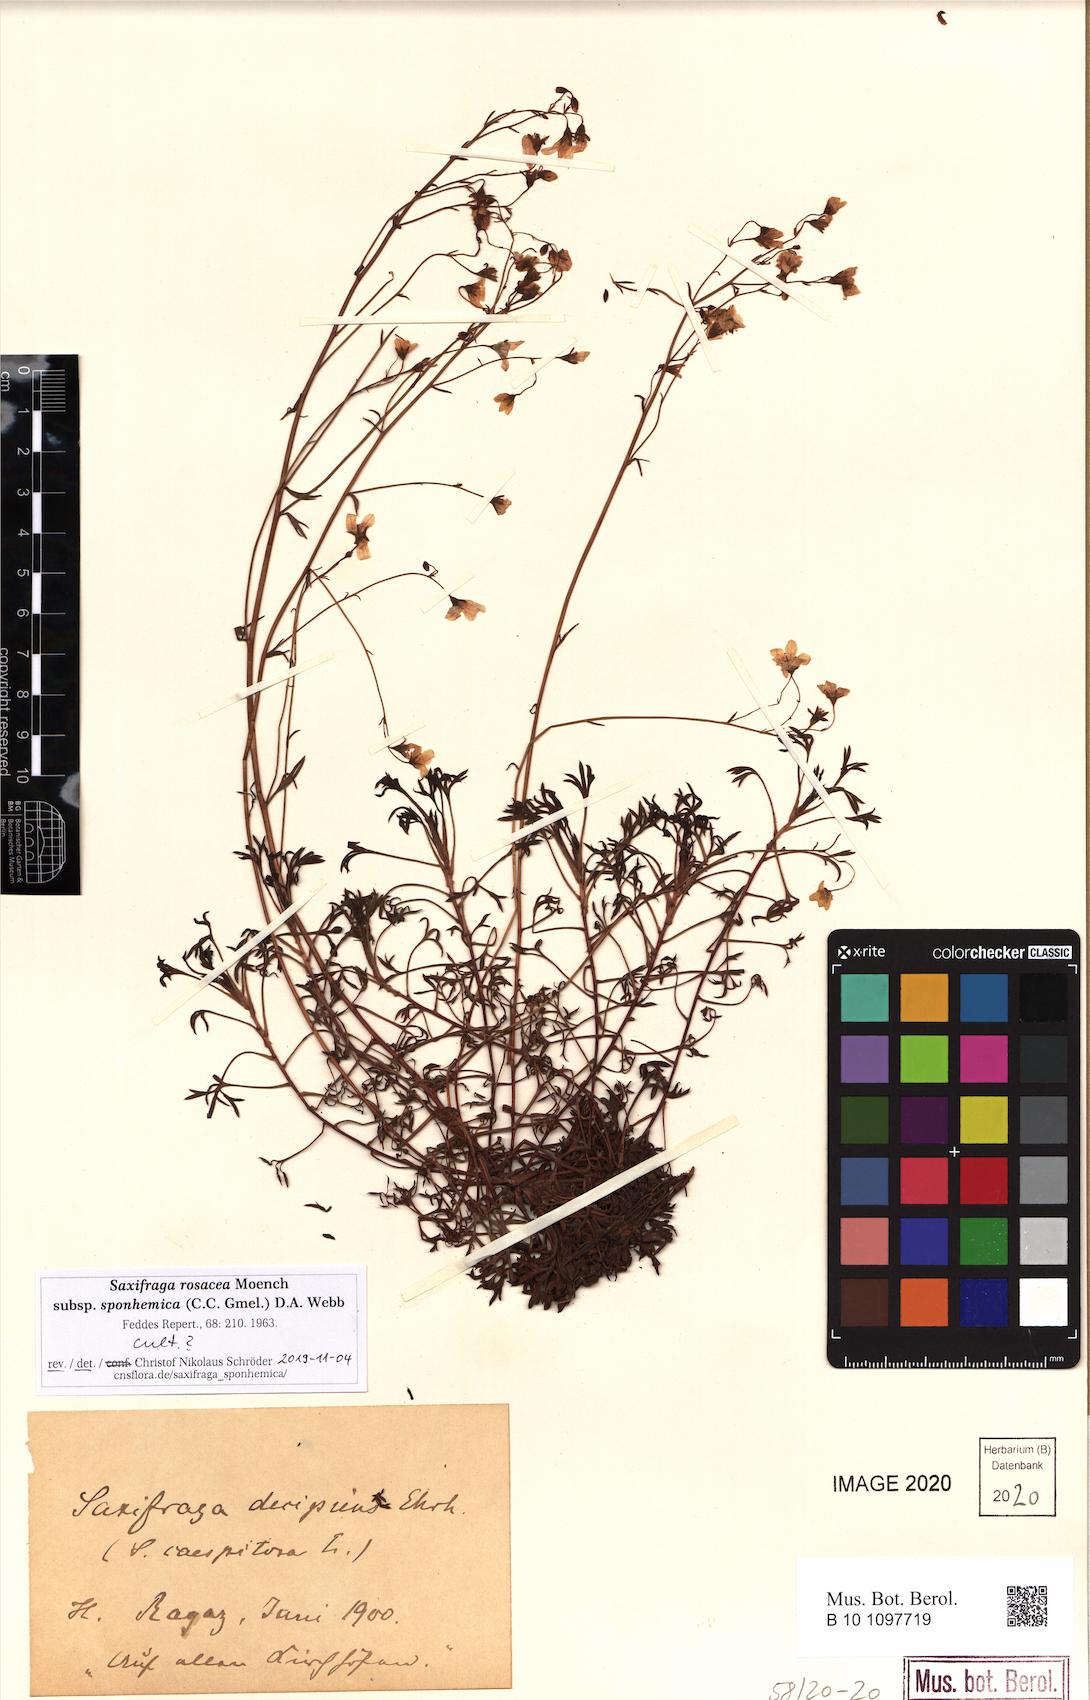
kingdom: Plantae
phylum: Tracheophyta
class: Magnoliopsida
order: Saxifragales
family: Saxifragaceae
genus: Saxifraga
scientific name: Saxifraga rosacea
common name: Irish saxifrage
